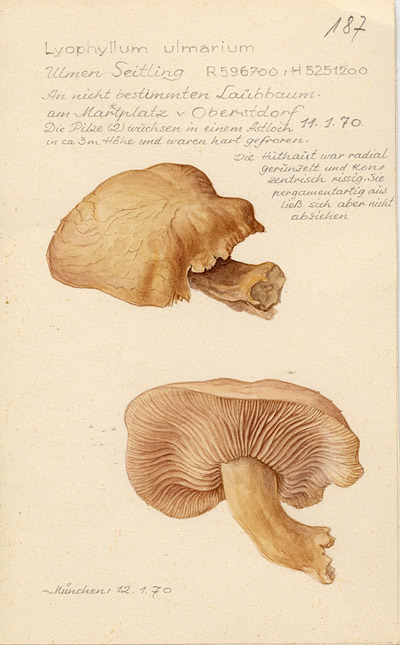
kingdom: Fungi
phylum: Basidiomycota
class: Agaricomycetes
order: Agaricales
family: Lyophyllaceae
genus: Hypsizygus
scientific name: Hypsizygus ulmarius
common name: Elm leech
